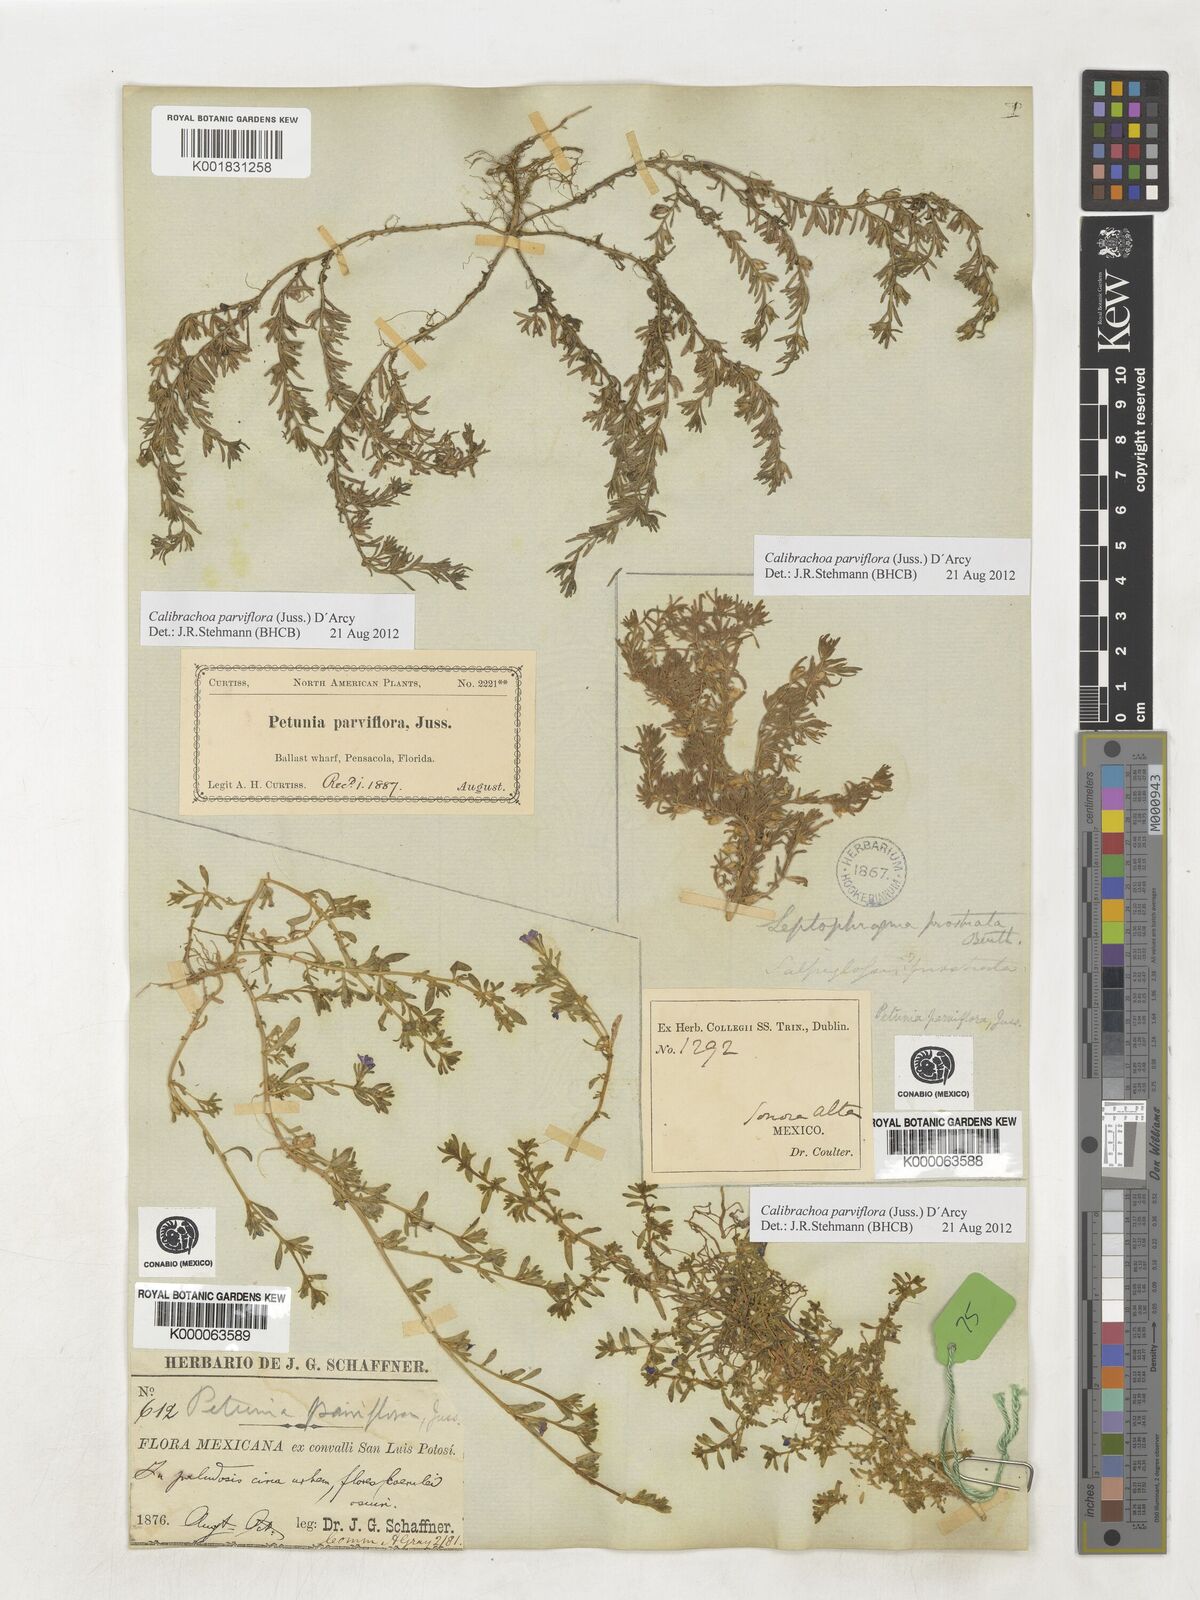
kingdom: Plantae
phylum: Tracheophyta
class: Magnoliopsida
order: Solanales
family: Solanaceae
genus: Calibrachoa
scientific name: Calibrachoa parviflora
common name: Seaside petunia
